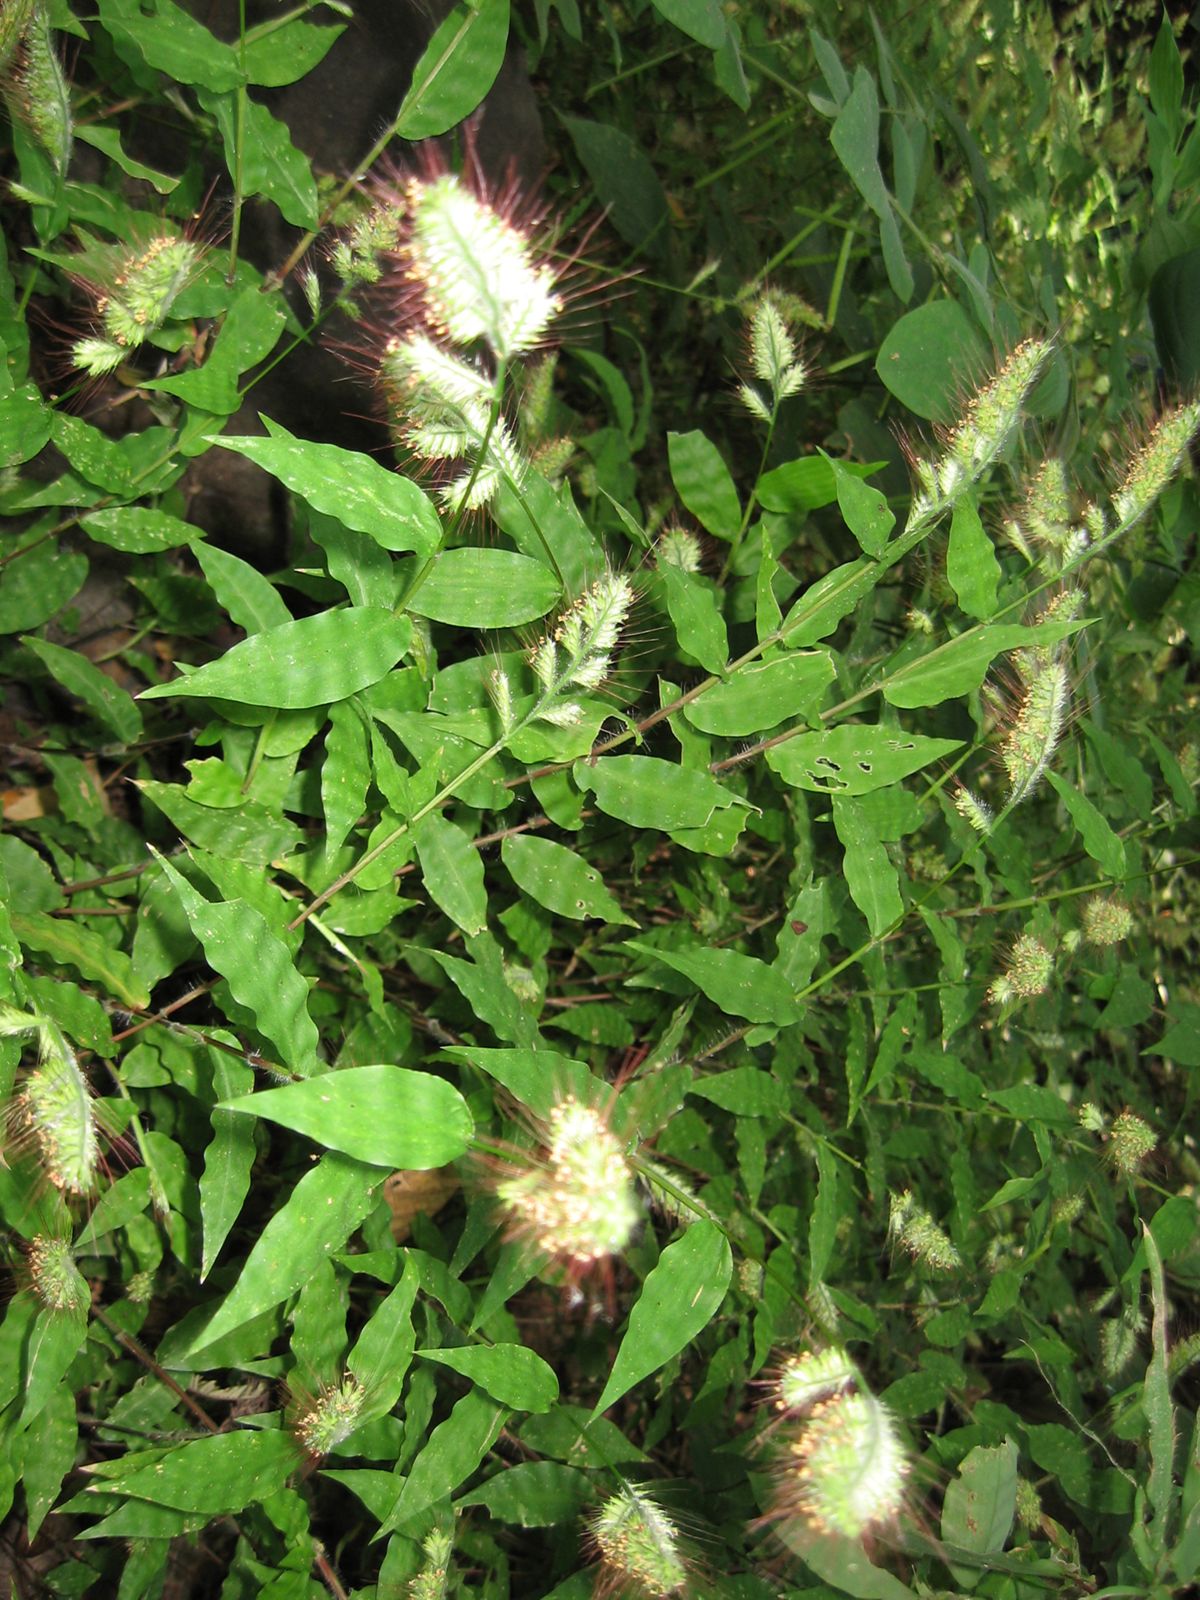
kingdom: Plantae
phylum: Tracheophyta
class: Liliopsida
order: Poales
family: Poaceae
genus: Oplismenus
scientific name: Oplismenus burmanni
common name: Burmann's basketgrass
